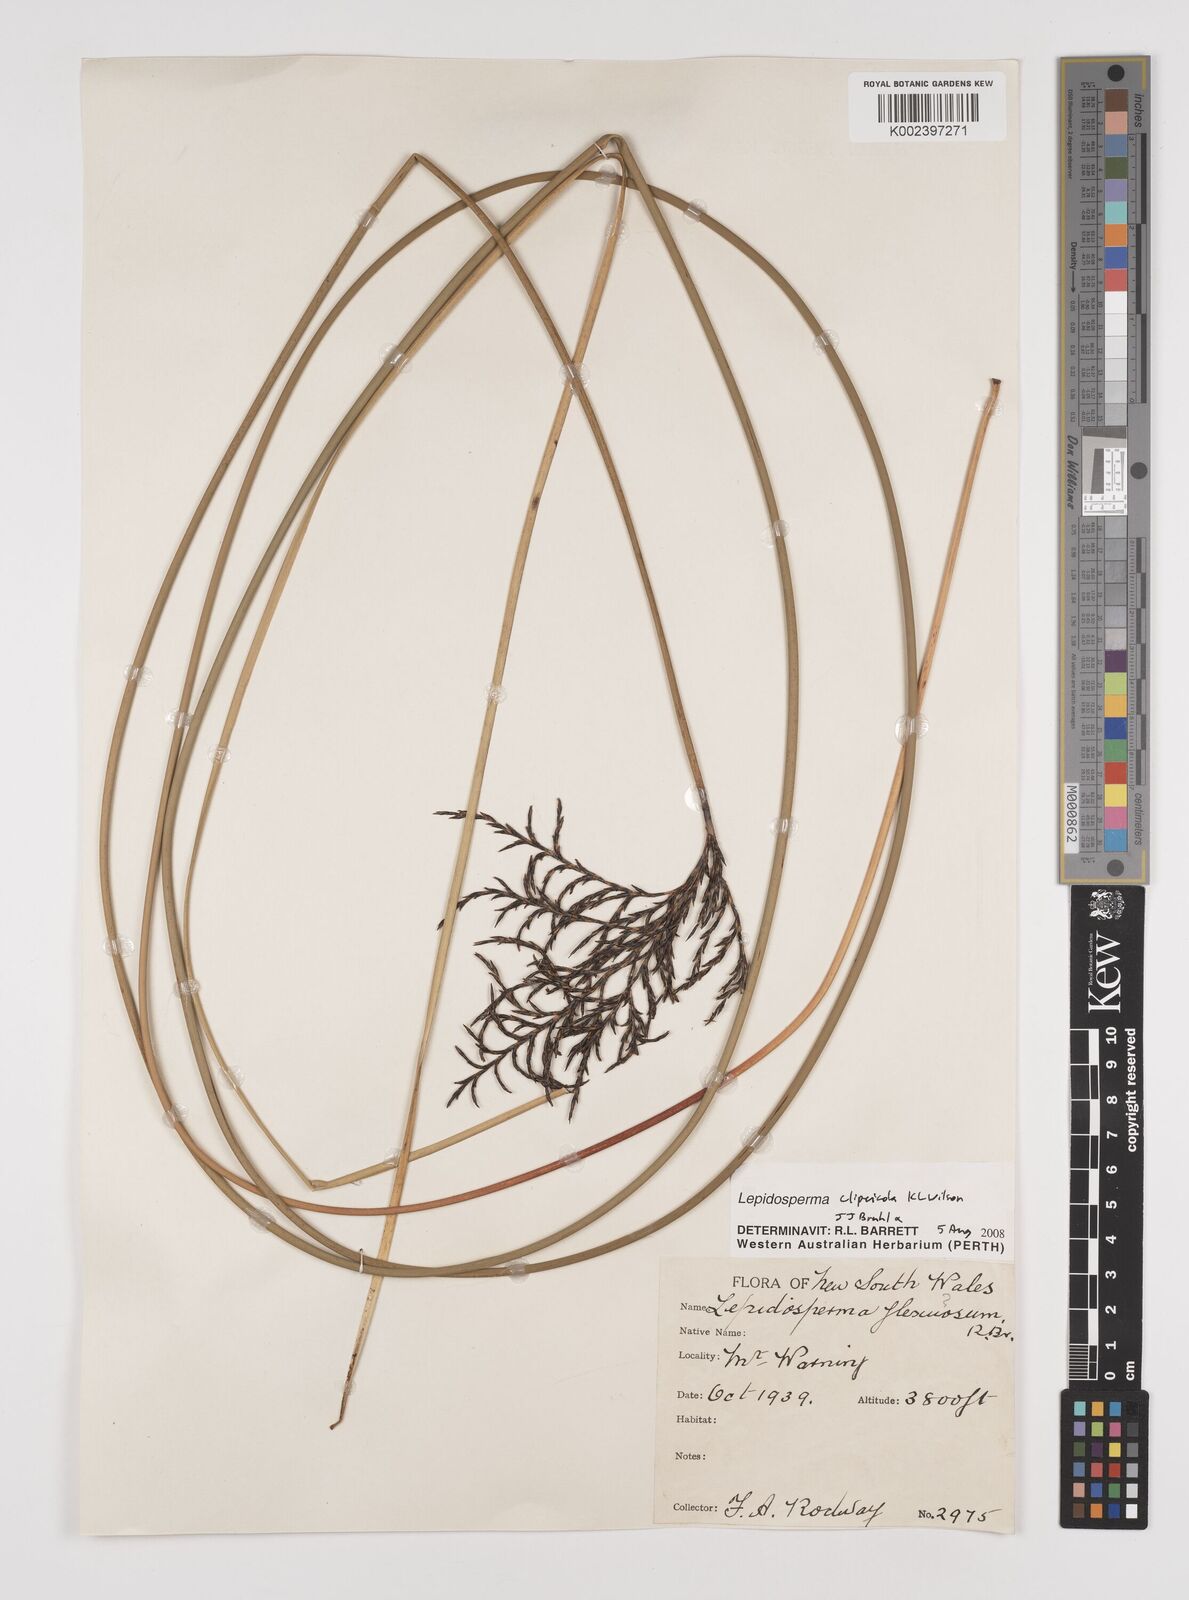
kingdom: Plantae
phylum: Tracheophyta
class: Liliopsida
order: Poales
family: Cyperaceae
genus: Lepidosperma
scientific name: Lepidosperma clipeicola
